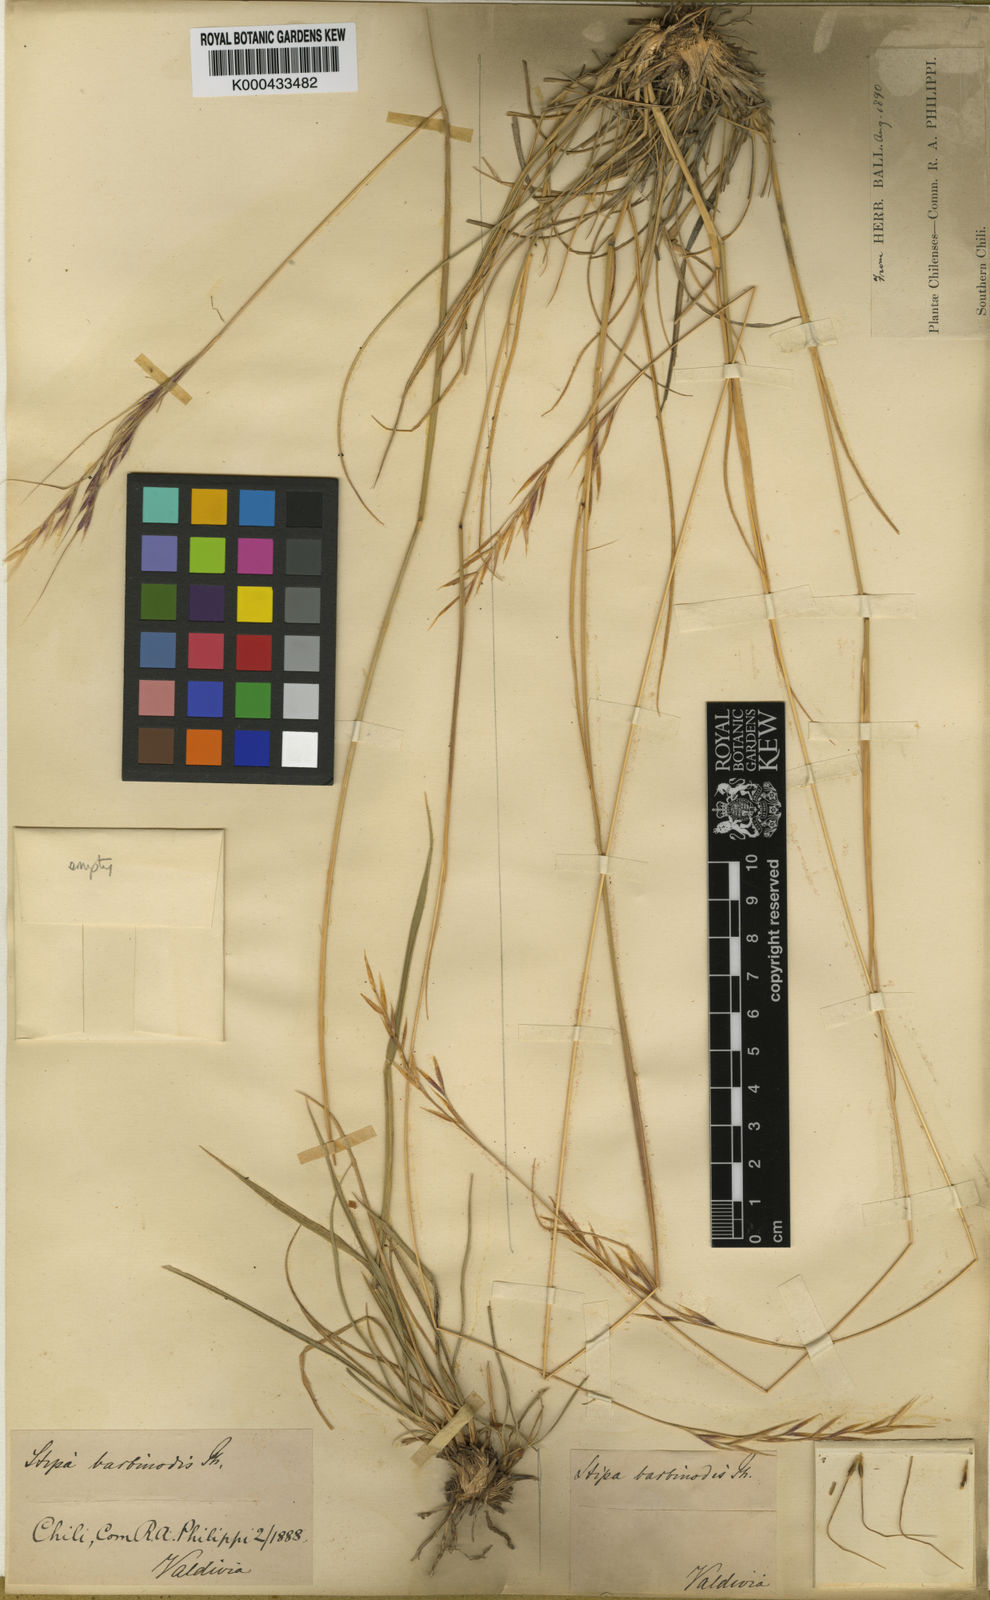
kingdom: Plantae
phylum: Tracheophyta
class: Liliopsida
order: Poales
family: Poaceae
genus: Nassella
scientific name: Nassella duriuscula
